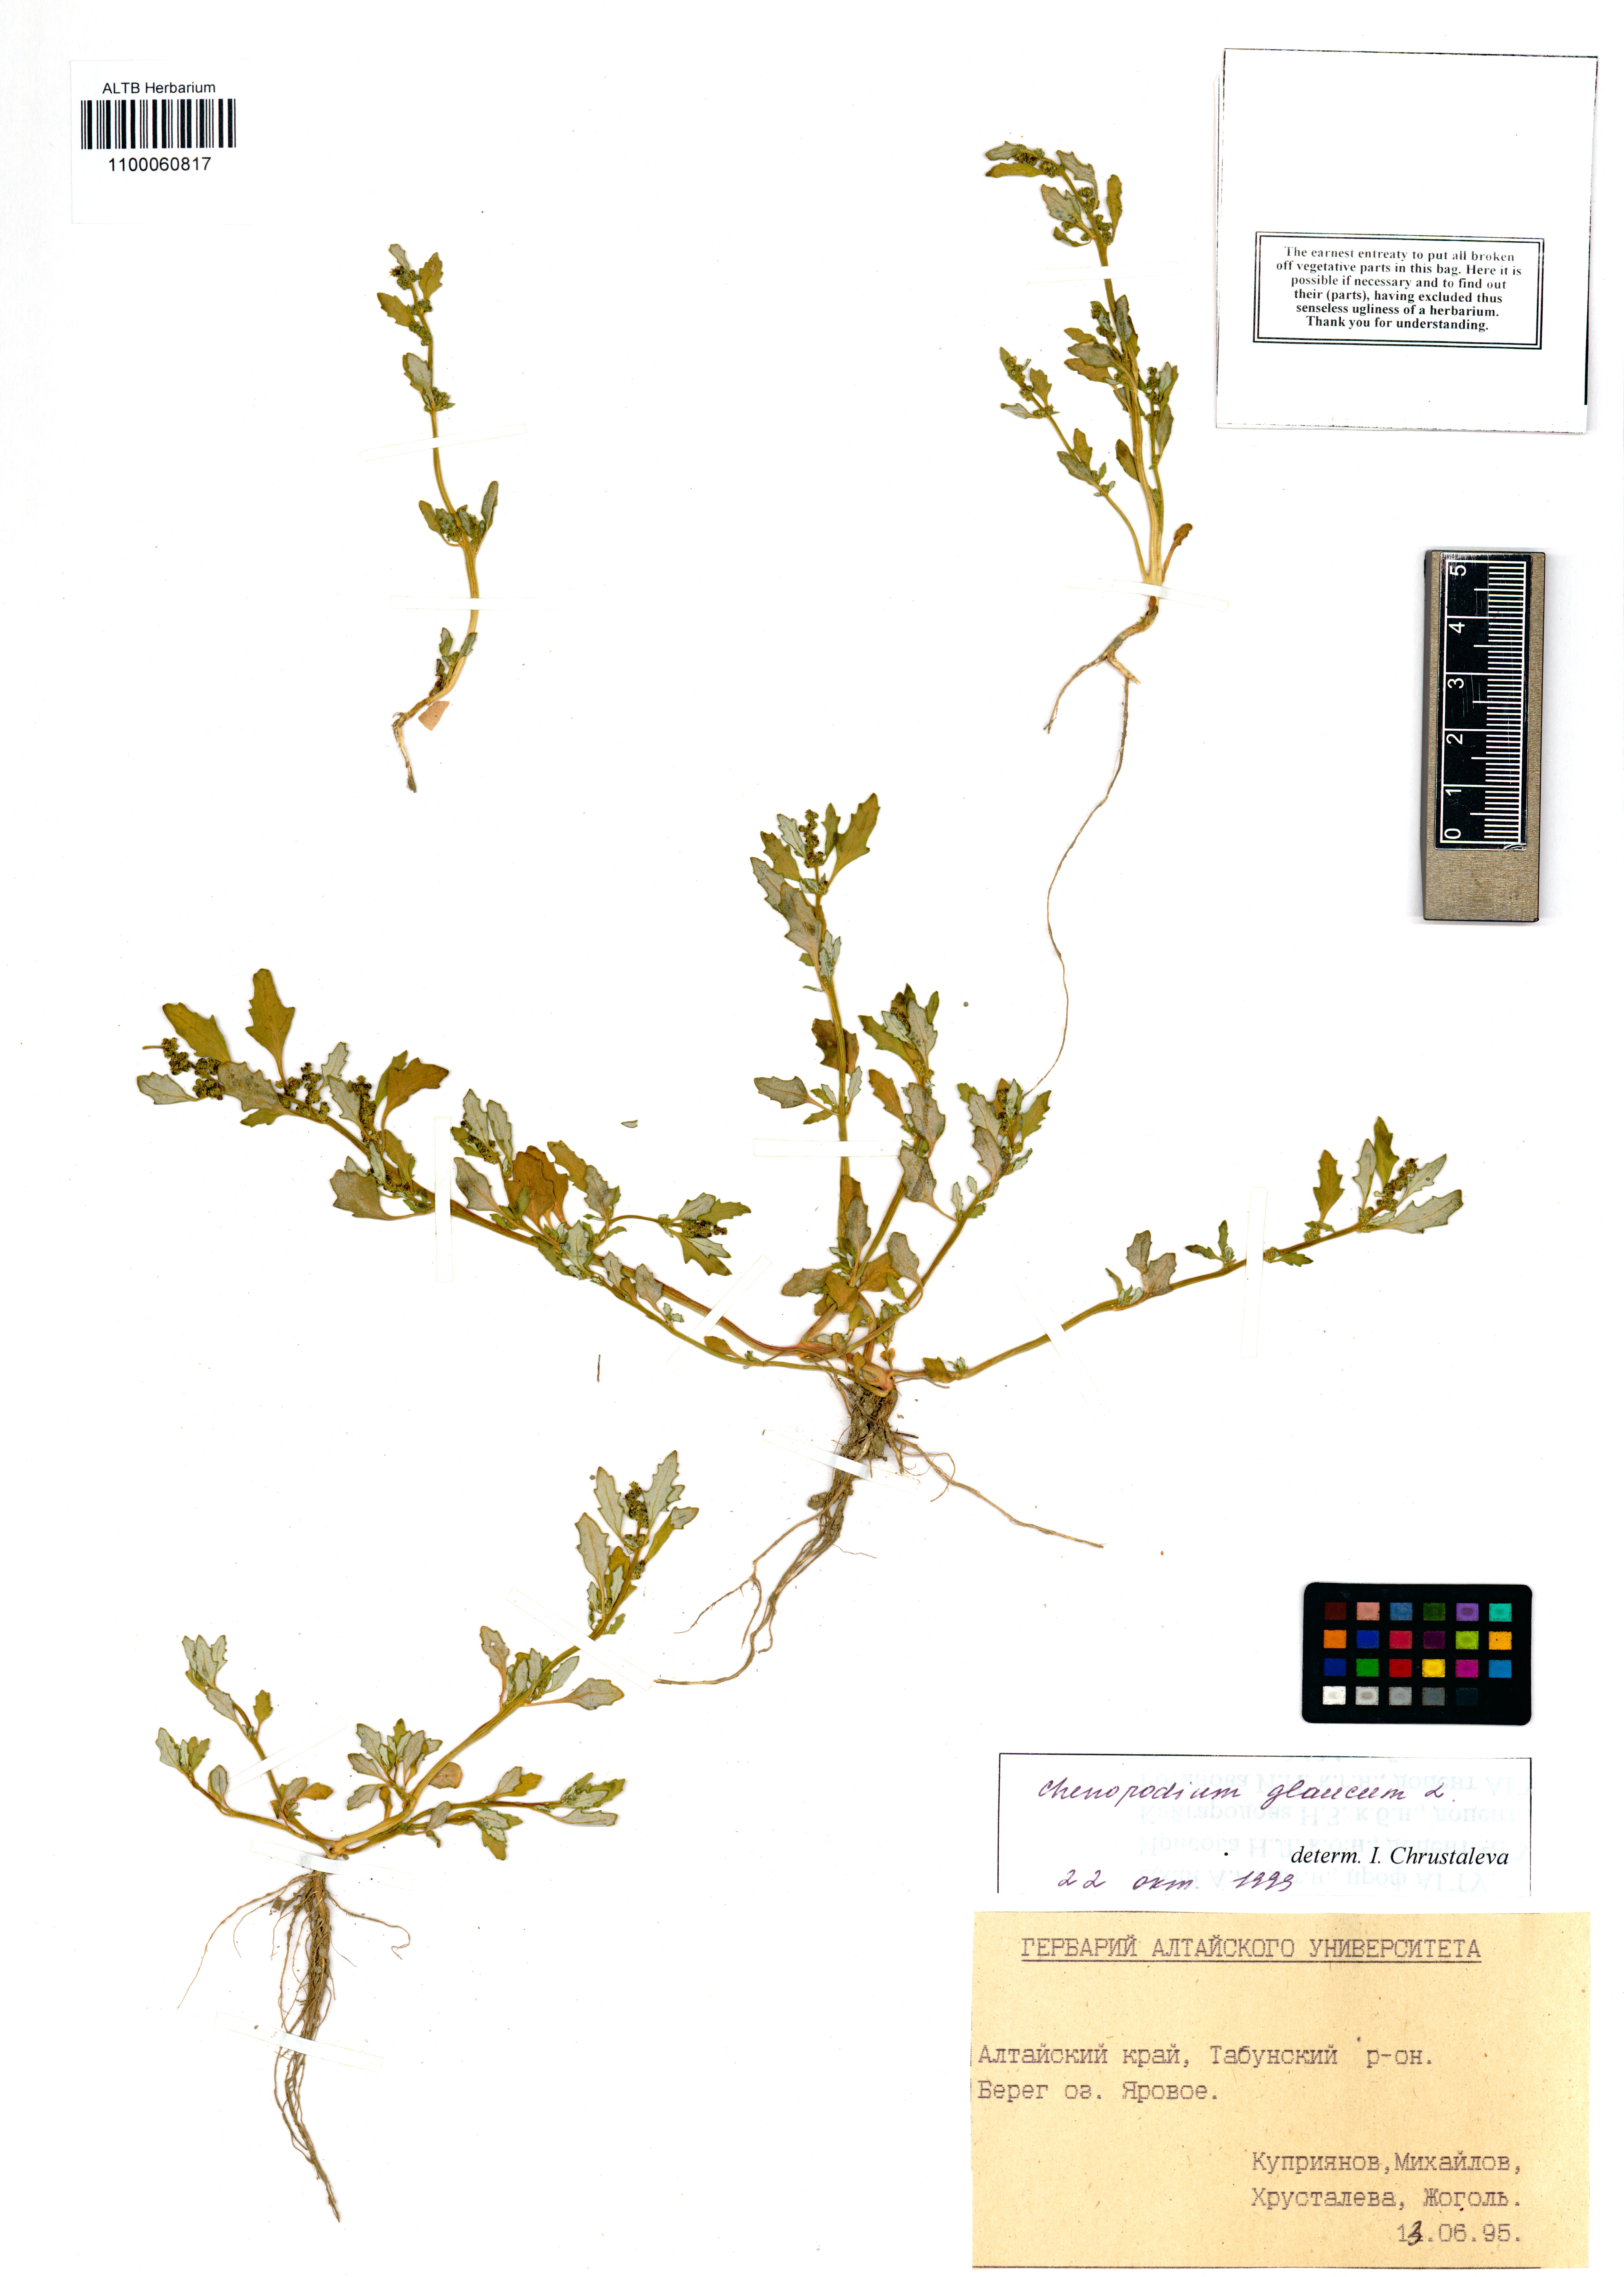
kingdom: Plantae
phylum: Tracheophyta
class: Magnoliopsida
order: Caryophyllales
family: Amaranthaceae
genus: Oxybasis
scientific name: Oxybasis glauca
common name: Glaucous goosefoot
